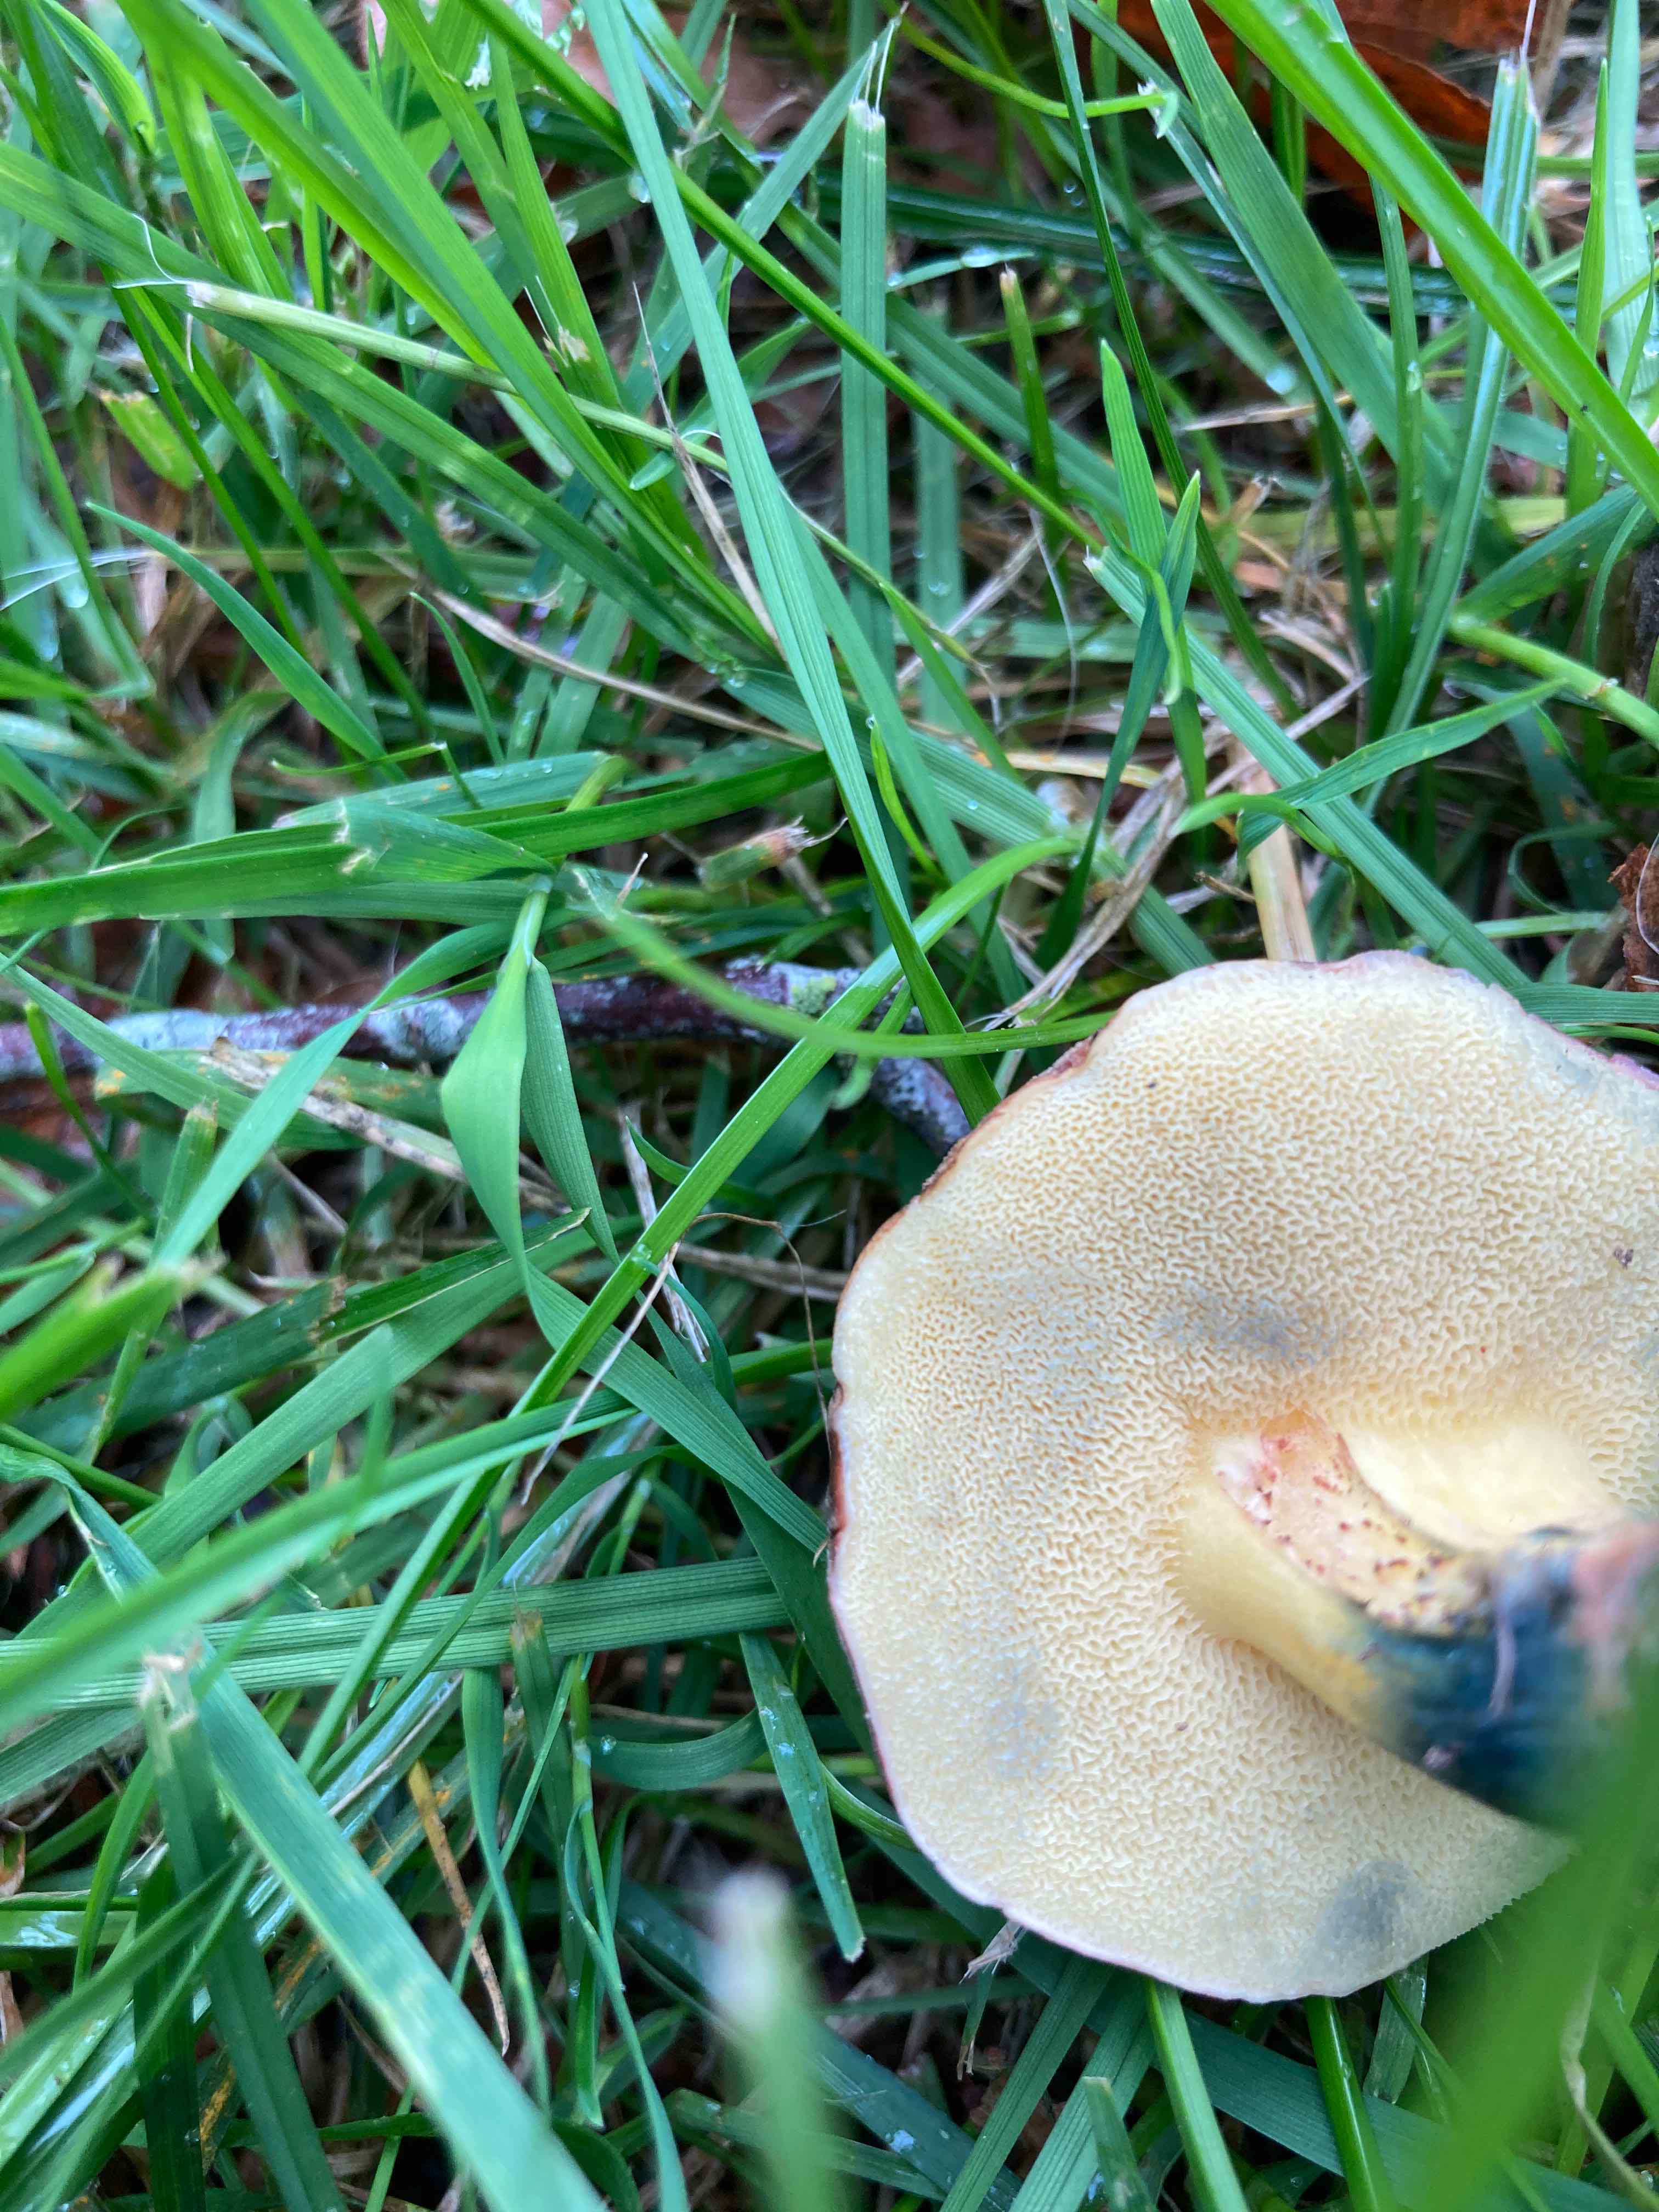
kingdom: Fungi
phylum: Basidiomycota
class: Agaricomycetes
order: Boletales
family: Boletaceae
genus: Xerocomellus
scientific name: Xerocomellus cisalpinus
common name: finsprukken rørhat
